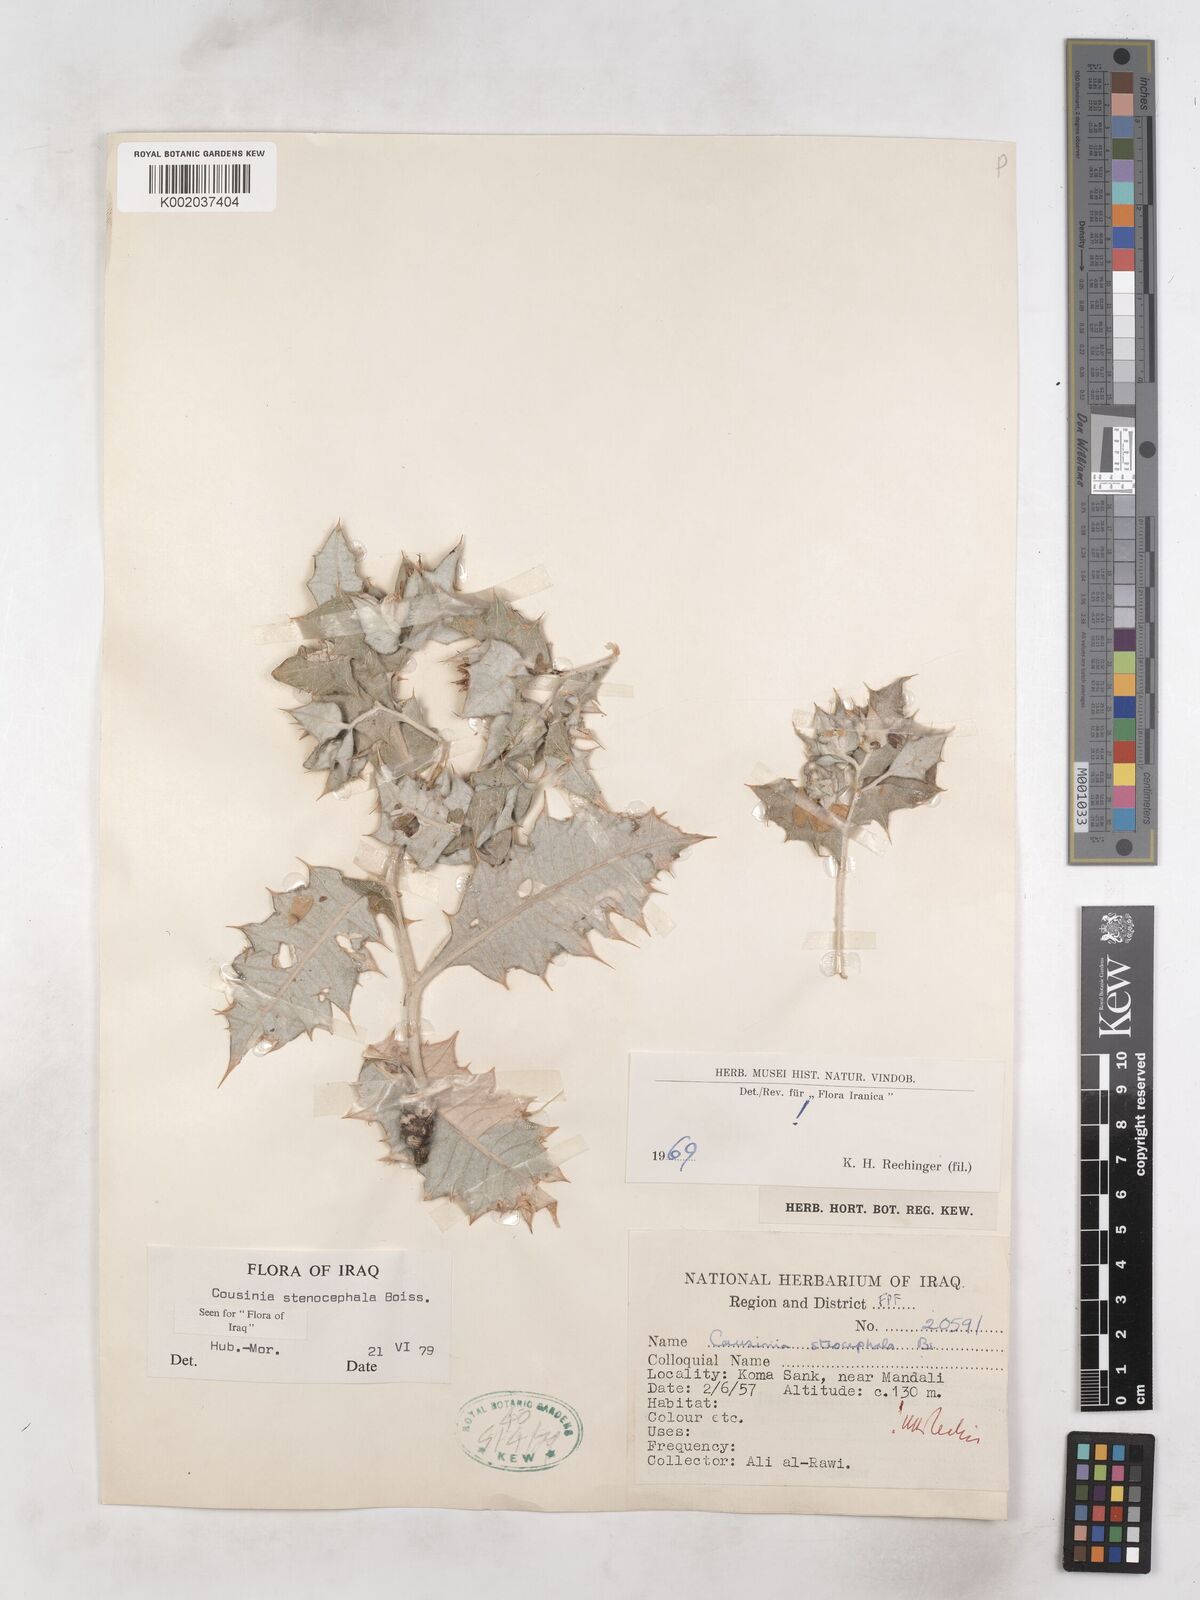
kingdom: Plantae
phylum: Tracheophyta
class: Magnoliopsida
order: Asterales
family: Asteraceae
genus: Cousinia
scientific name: Cousinia stenocephala
